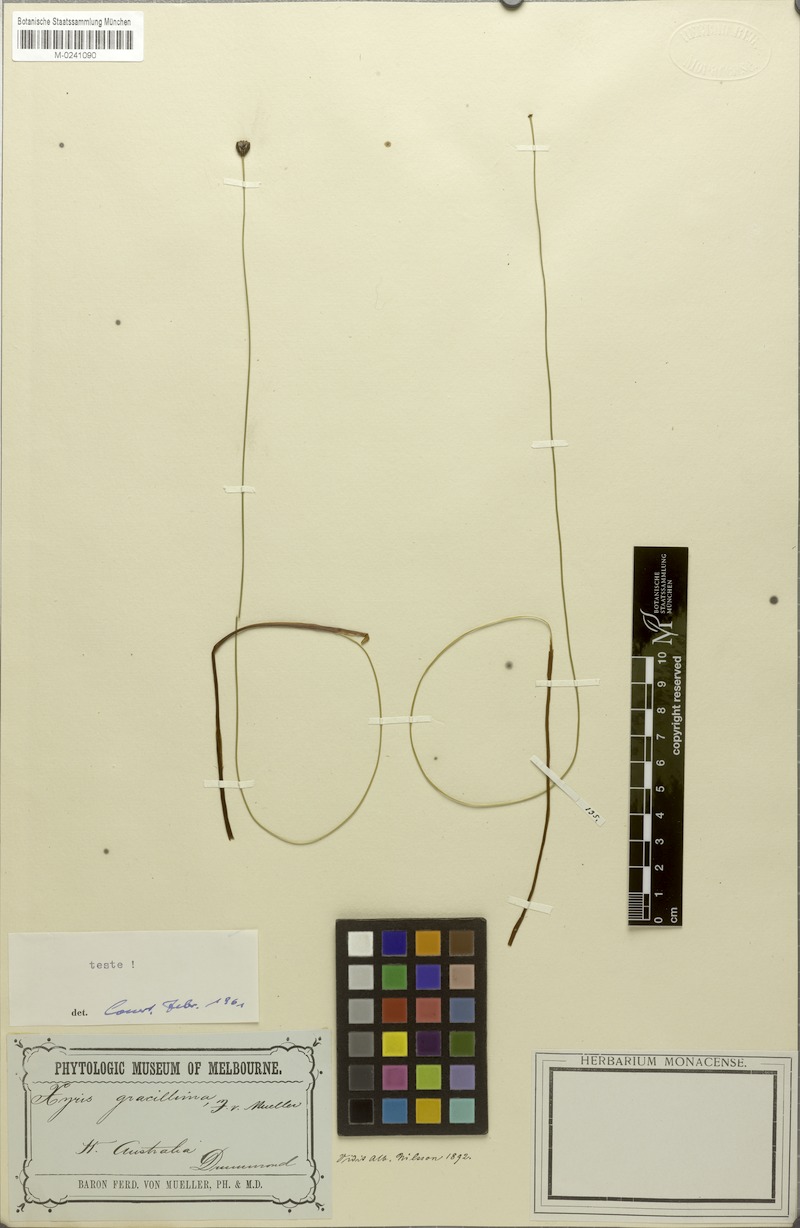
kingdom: Plantae
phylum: Tracheophyta
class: Liliopsida
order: Poales
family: Xyridaceae
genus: Xyris
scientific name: Xyris gracillima
